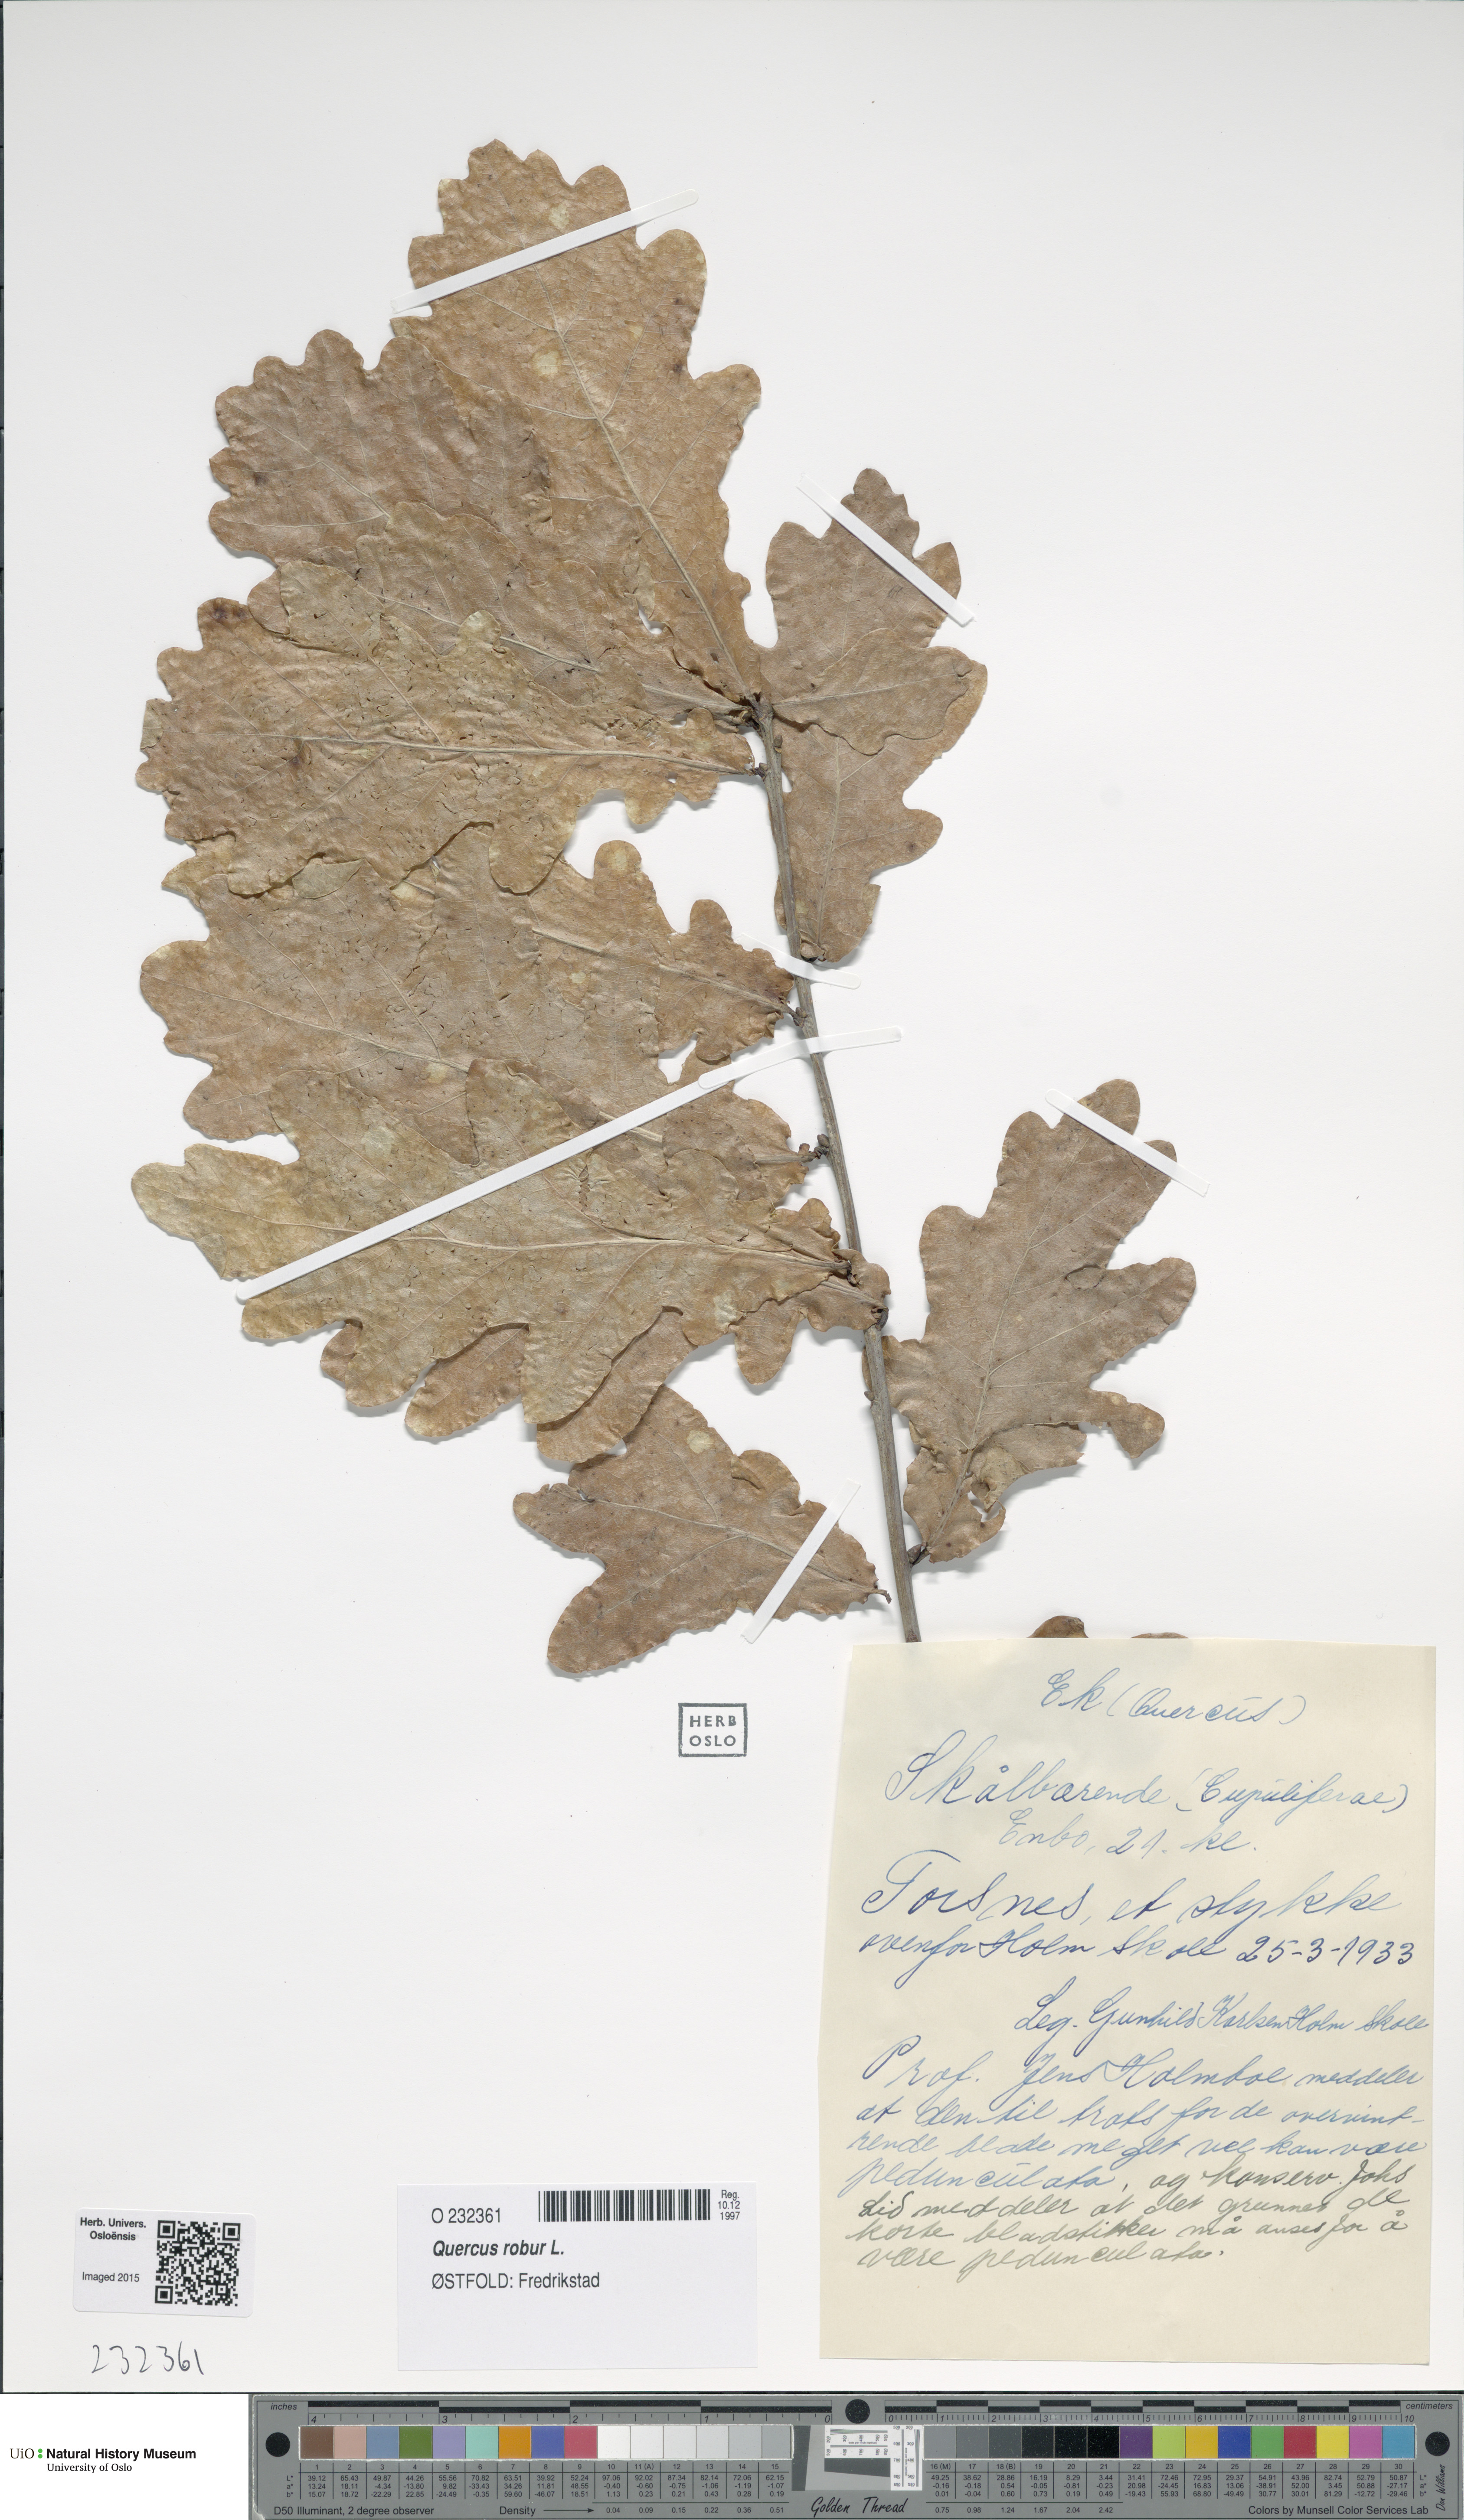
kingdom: Plantae
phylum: Tracheophyta
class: Magnoliopsida
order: Fagales
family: Fagaceae
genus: Quercus
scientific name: Quercus robur
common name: Pedunculate oak
